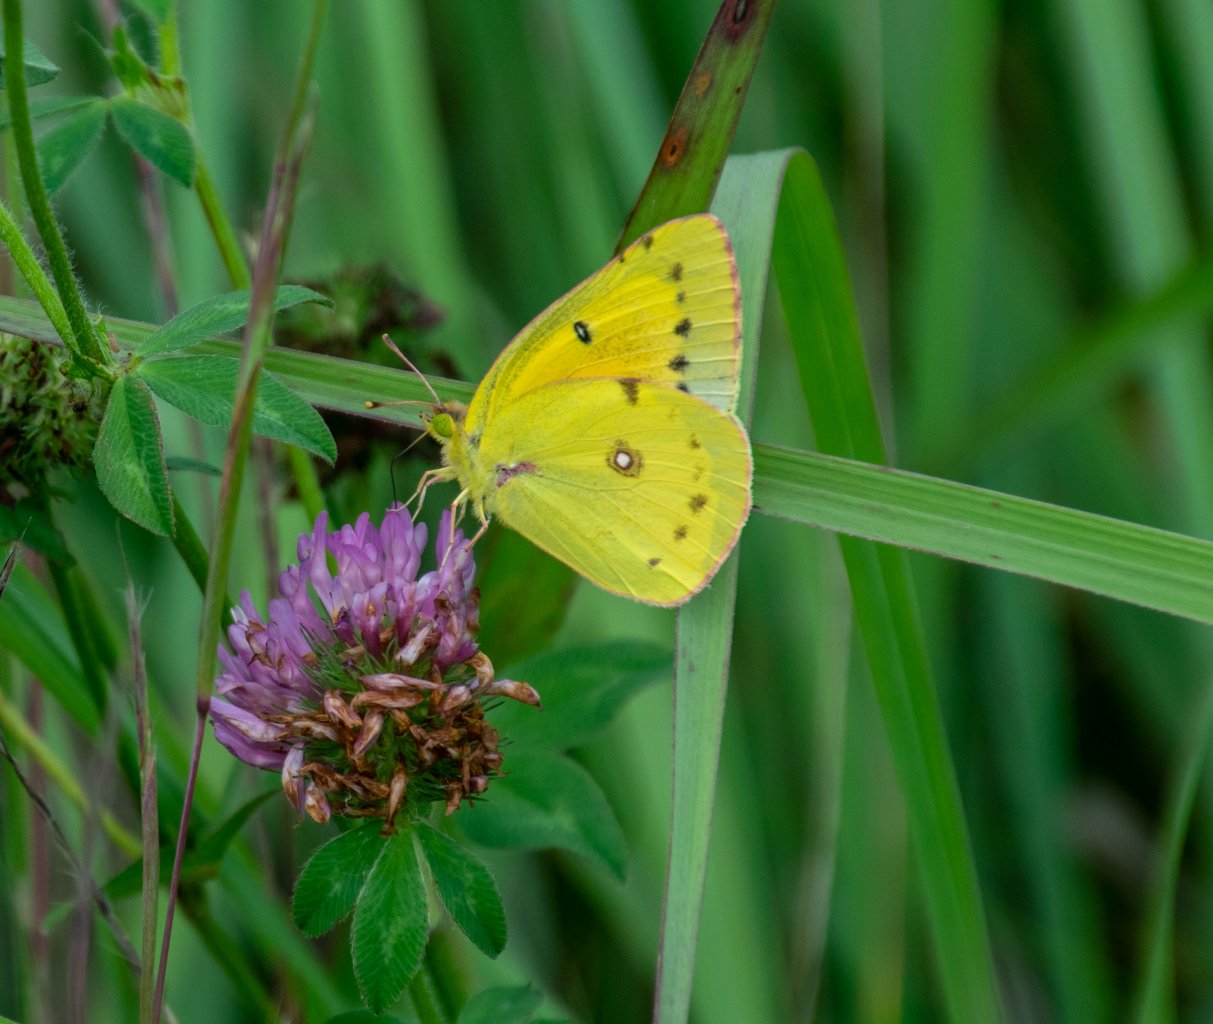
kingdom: Animalia
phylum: Arthropoda
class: Insecta
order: Lepidoptera
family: Pieridae
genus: Colias
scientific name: Colias eurytheme
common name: Orange Sulphur
